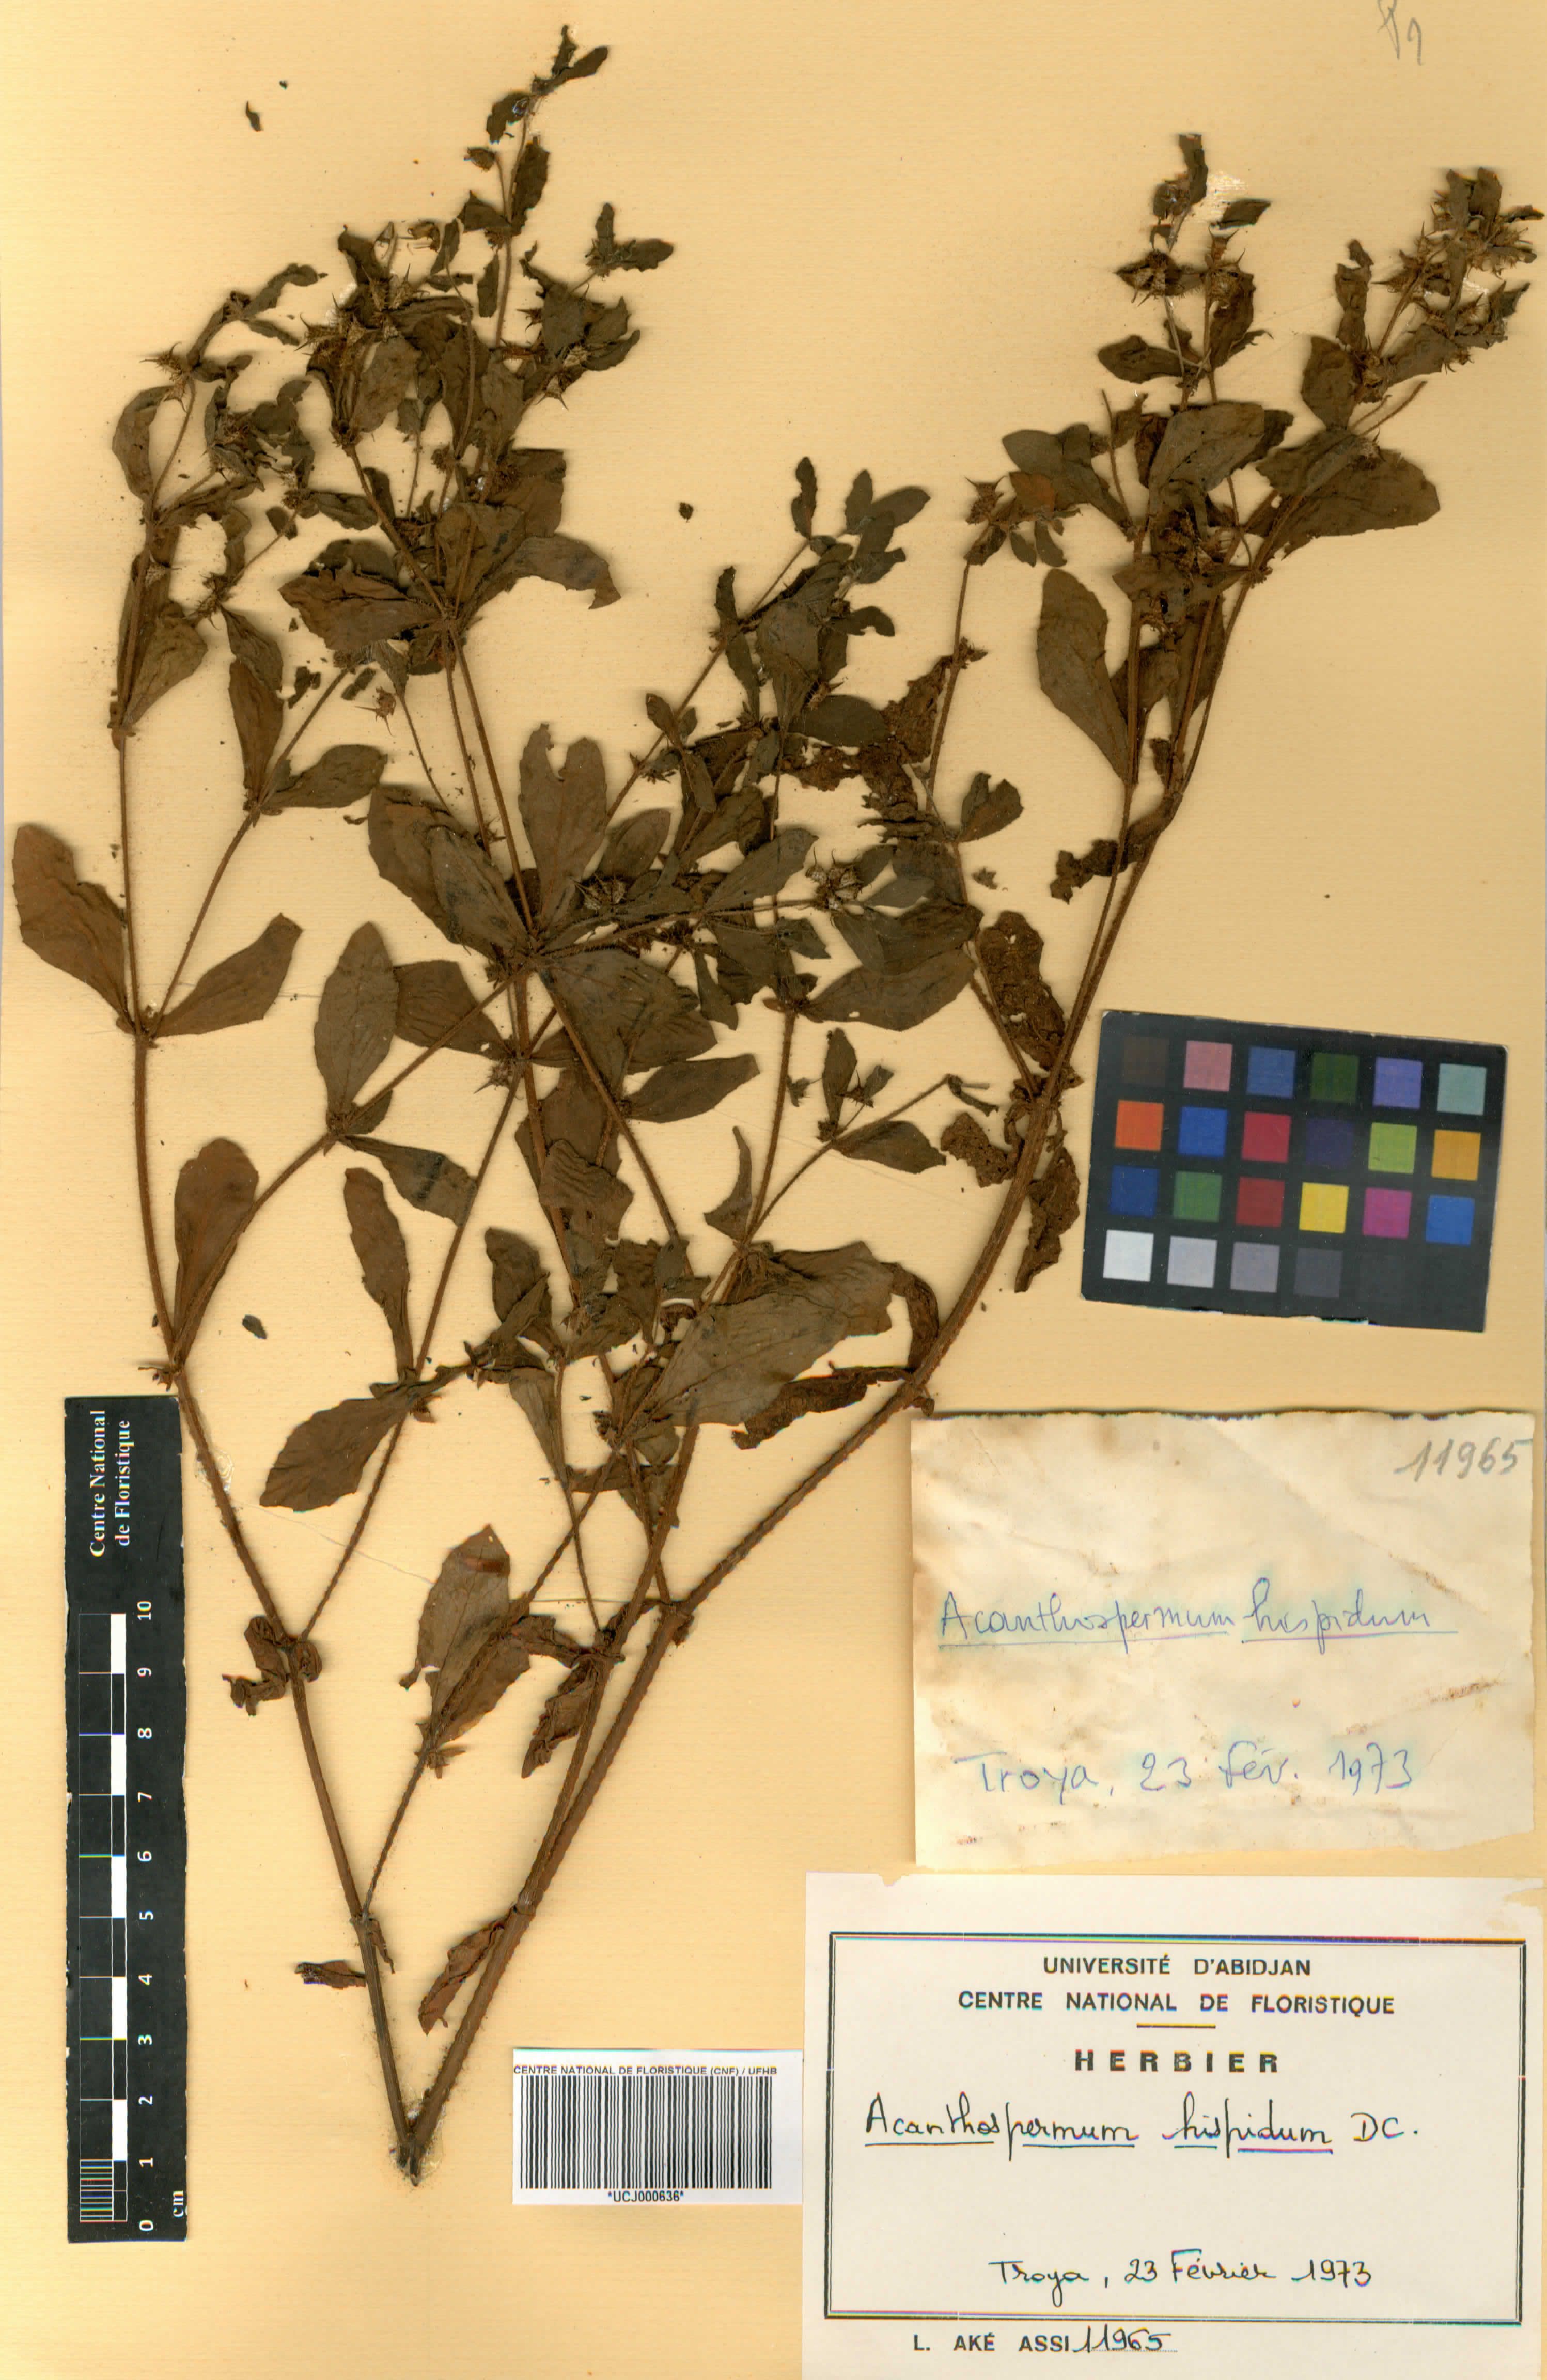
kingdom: Plantae
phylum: Tracheophyta
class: Magnoliopsida
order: Caryophyllales
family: Amaranthaceae
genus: Amaranthus
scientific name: Amaranthus
